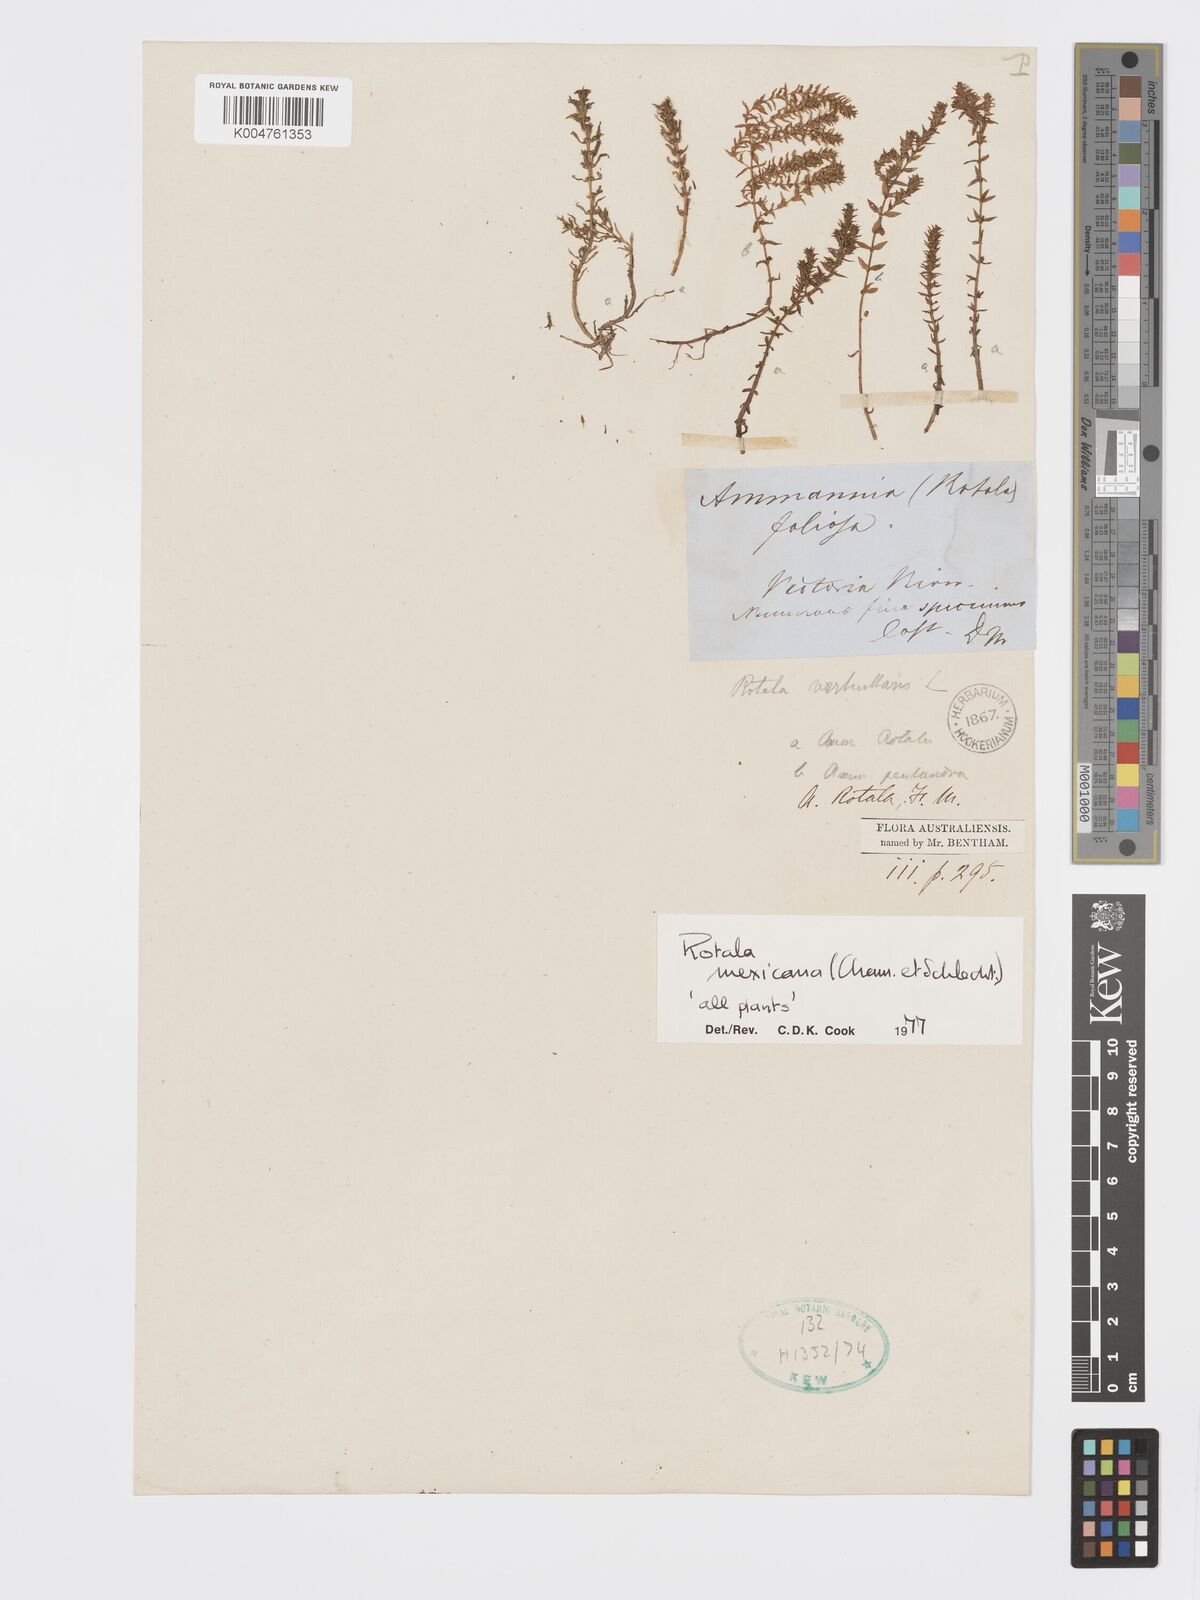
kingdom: Plantae
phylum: Tracheophyta
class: Magnoliopsida
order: Myrtales
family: Lythraceae
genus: Rotala
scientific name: Rotala mexicana
